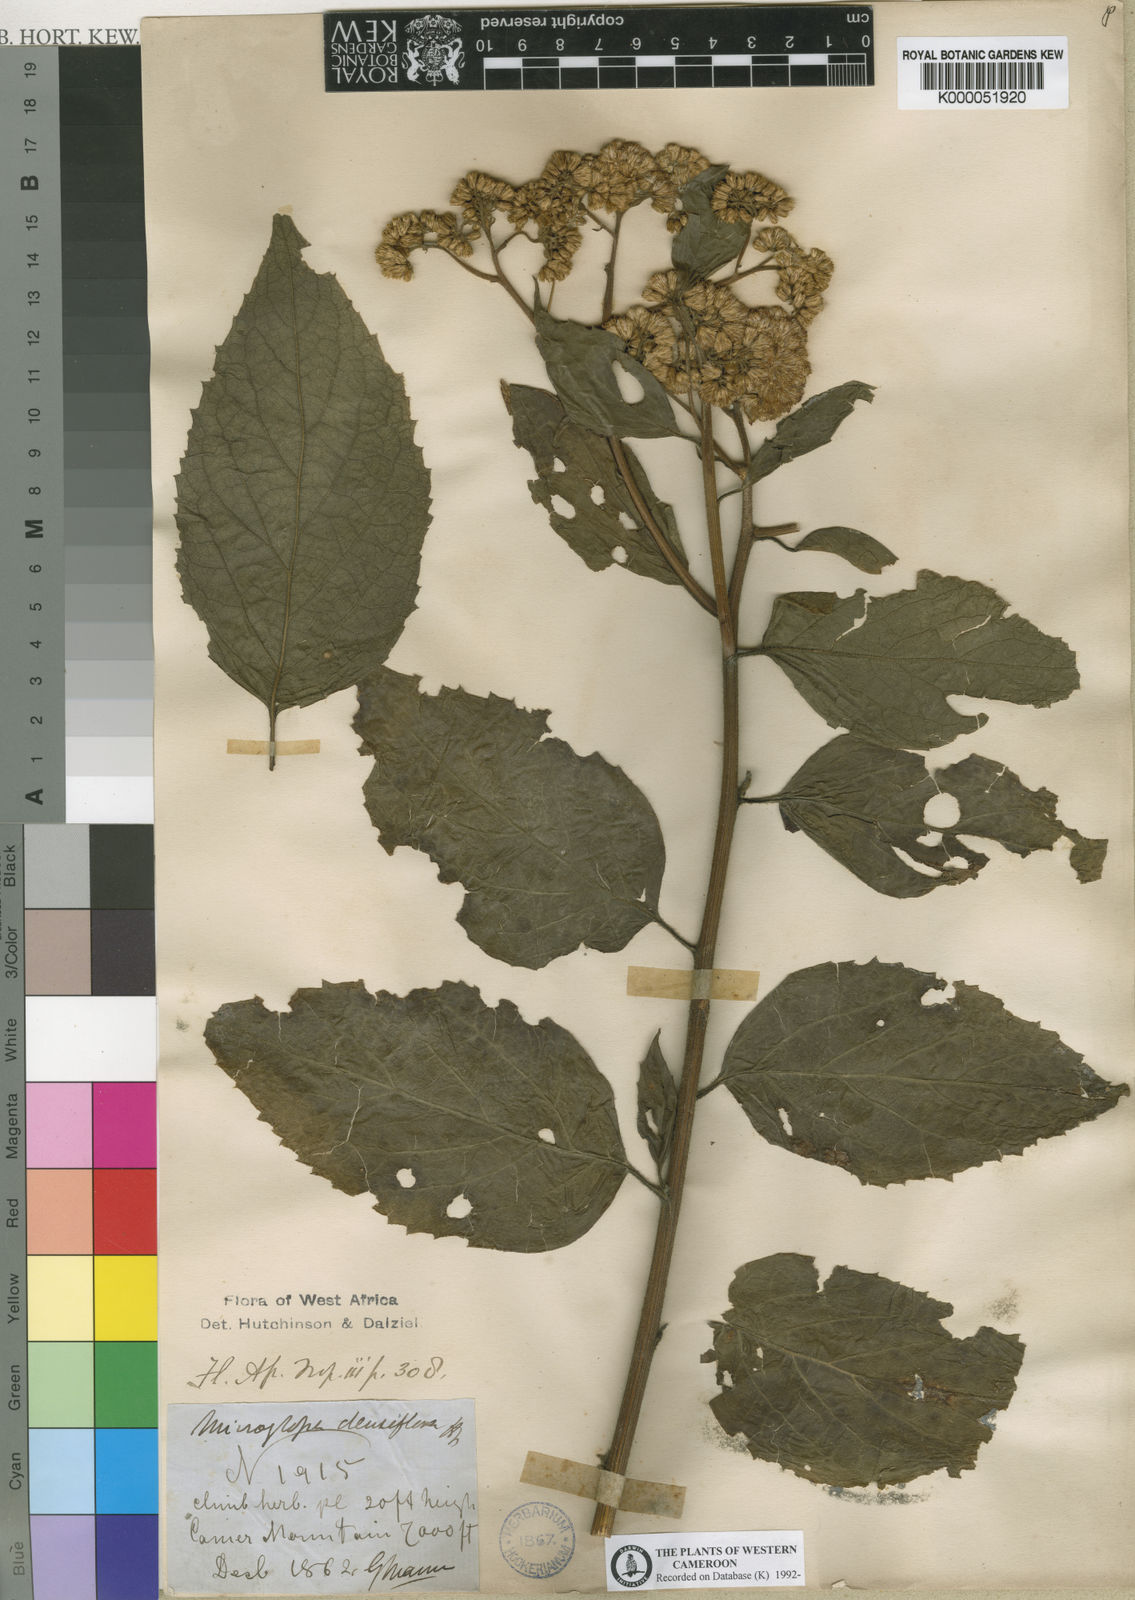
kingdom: Plantae
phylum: Tracheophyta
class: Magnoliopsida
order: Asterales
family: Asteraceae
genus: Microglossa
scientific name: Microglossa densiflora
